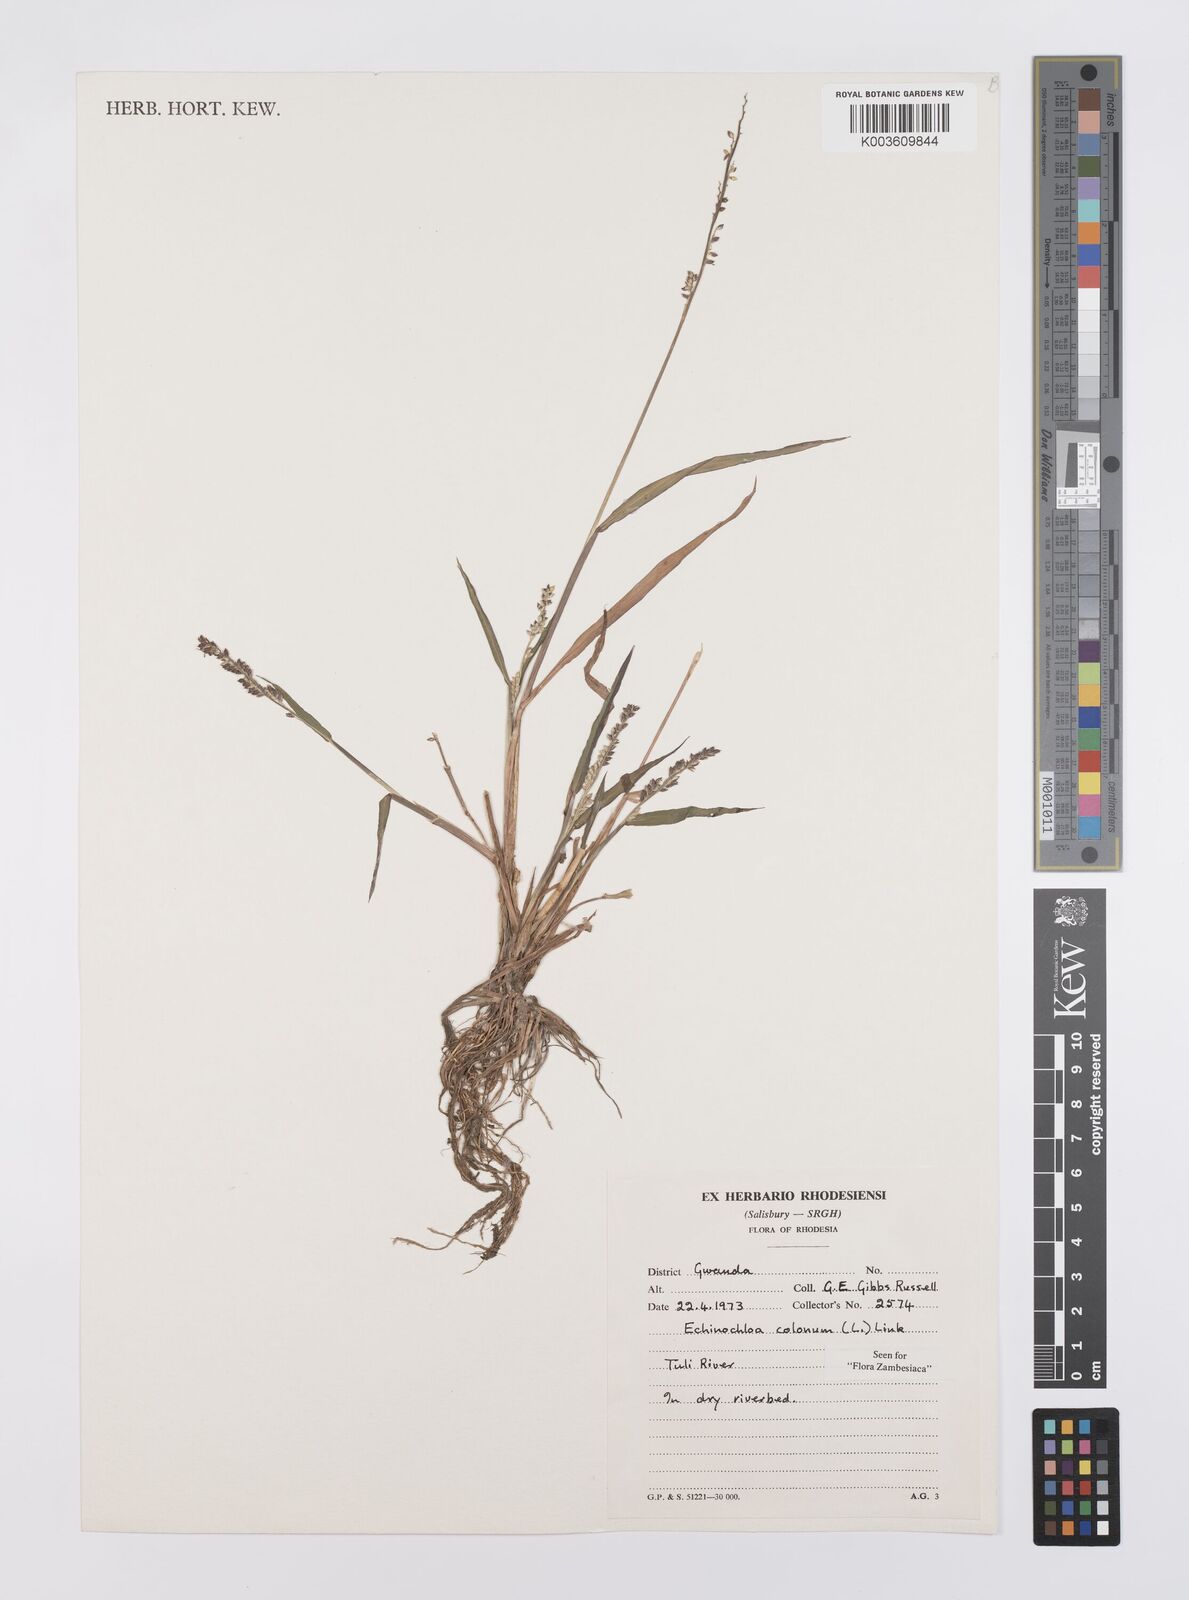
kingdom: Plantae
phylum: Tracheophyta
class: Liliopsida
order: Poales
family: Poaceae
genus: Echinochloa
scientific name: Echinochloa colonum
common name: Jungle rice
